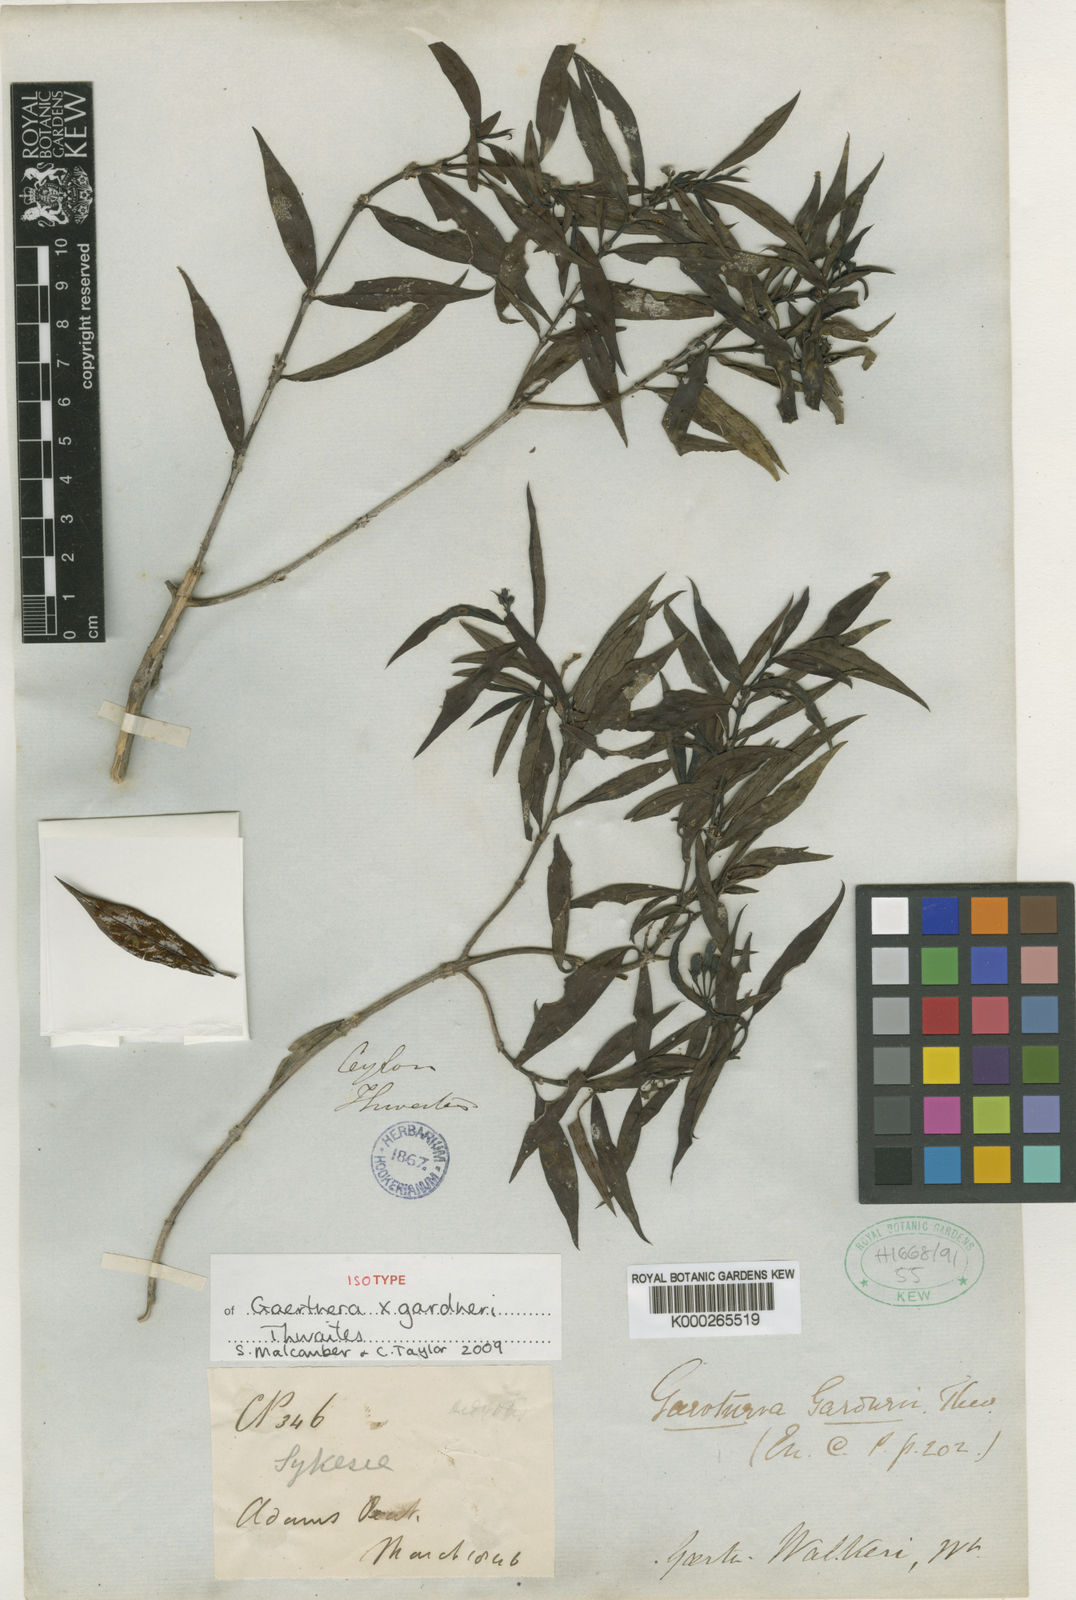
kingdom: Plantae
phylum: Tracheophyta
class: Magnoliopsida
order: Gentianales
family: Rubiaceae
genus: Gaertnera
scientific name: Gaertnera gardneri
